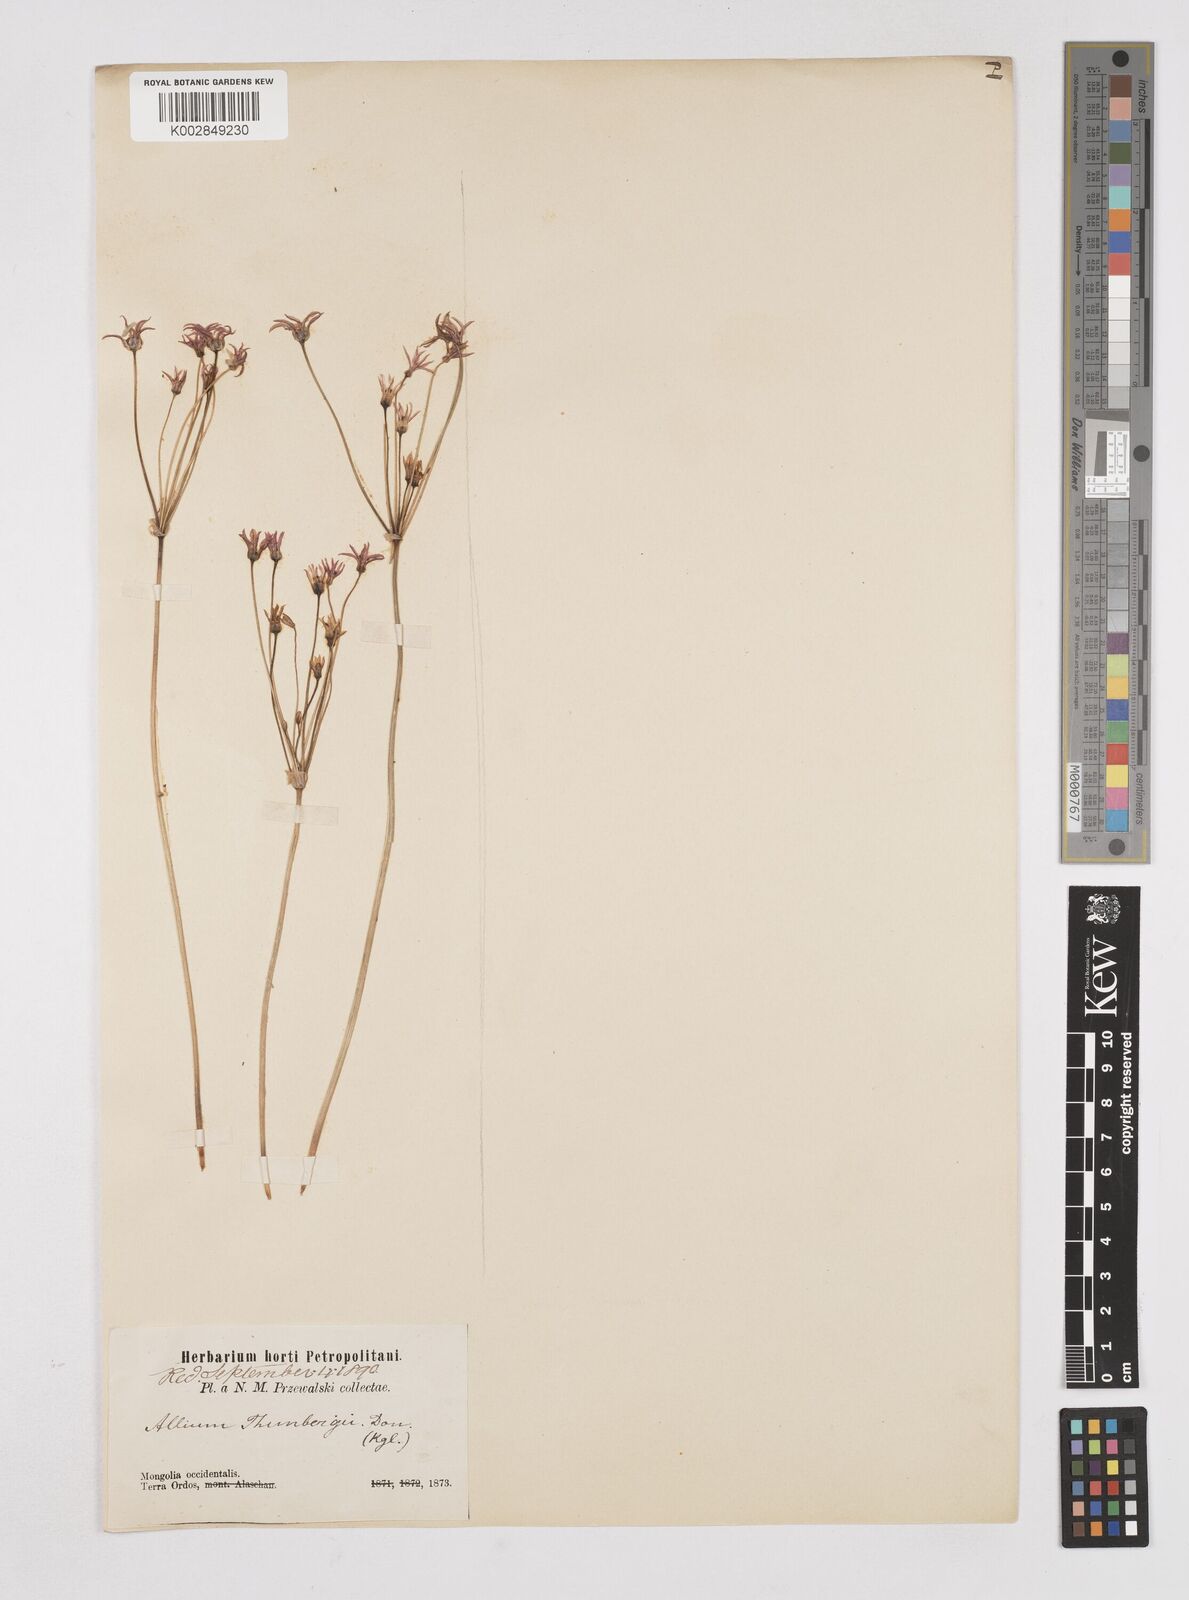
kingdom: Plantae
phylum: Tracheophyta
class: Liliopsida
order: Liliales
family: Liliaceae
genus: Agapanthus
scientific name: Agapanthus
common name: Agapanthus
